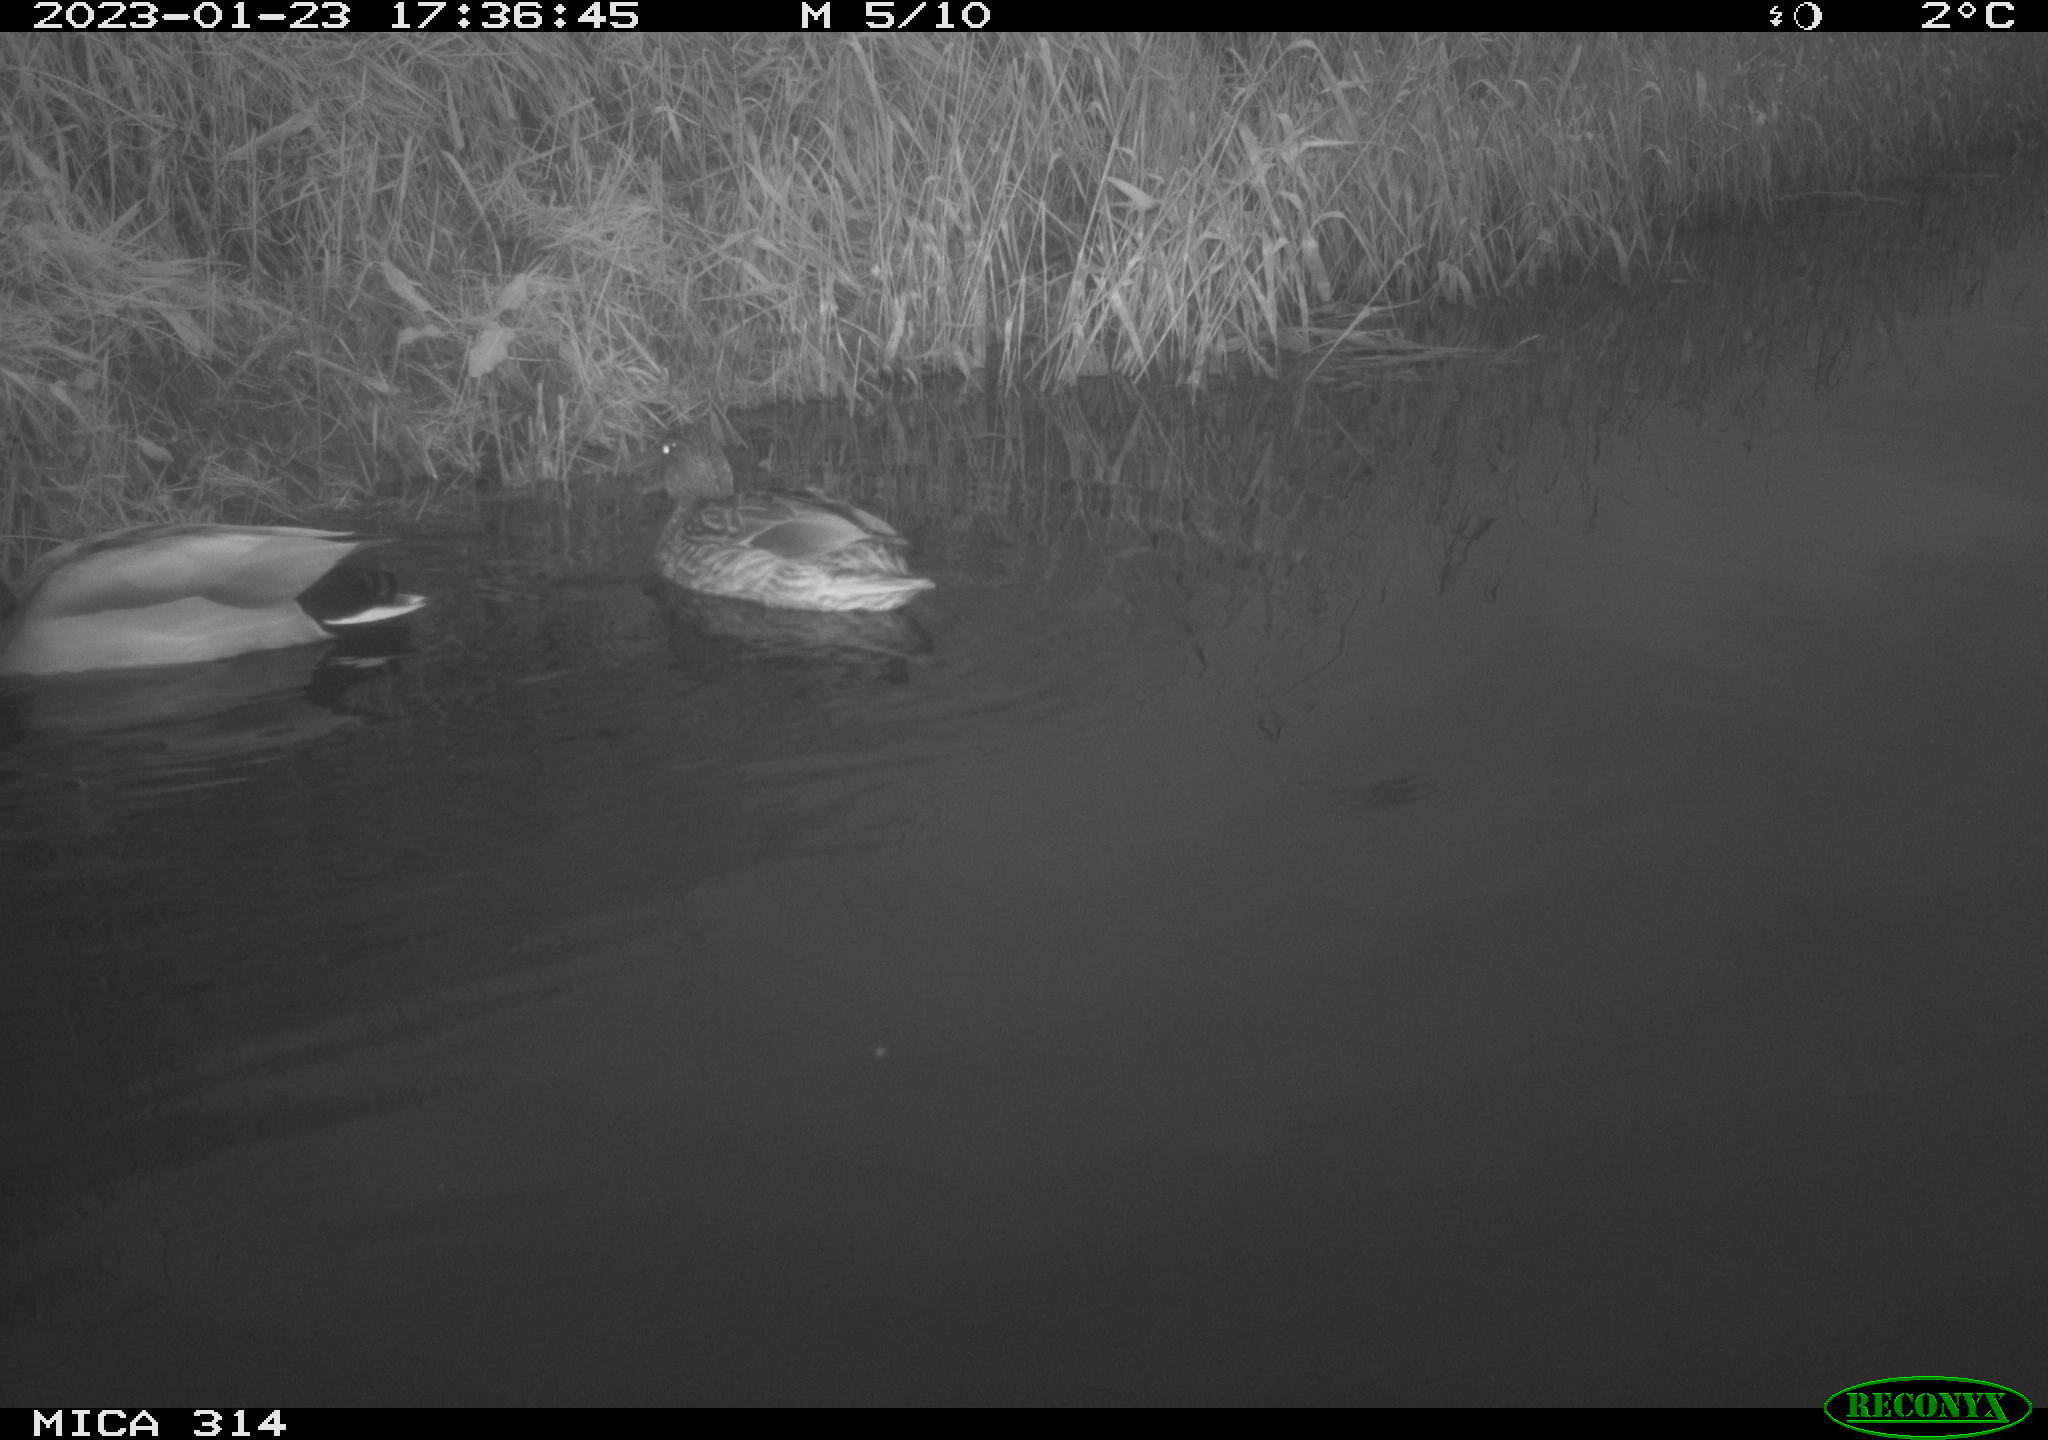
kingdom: Animalia
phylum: Chordata
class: Aves
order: Anseriformes
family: Anatidae
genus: Anas
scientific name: Anas
